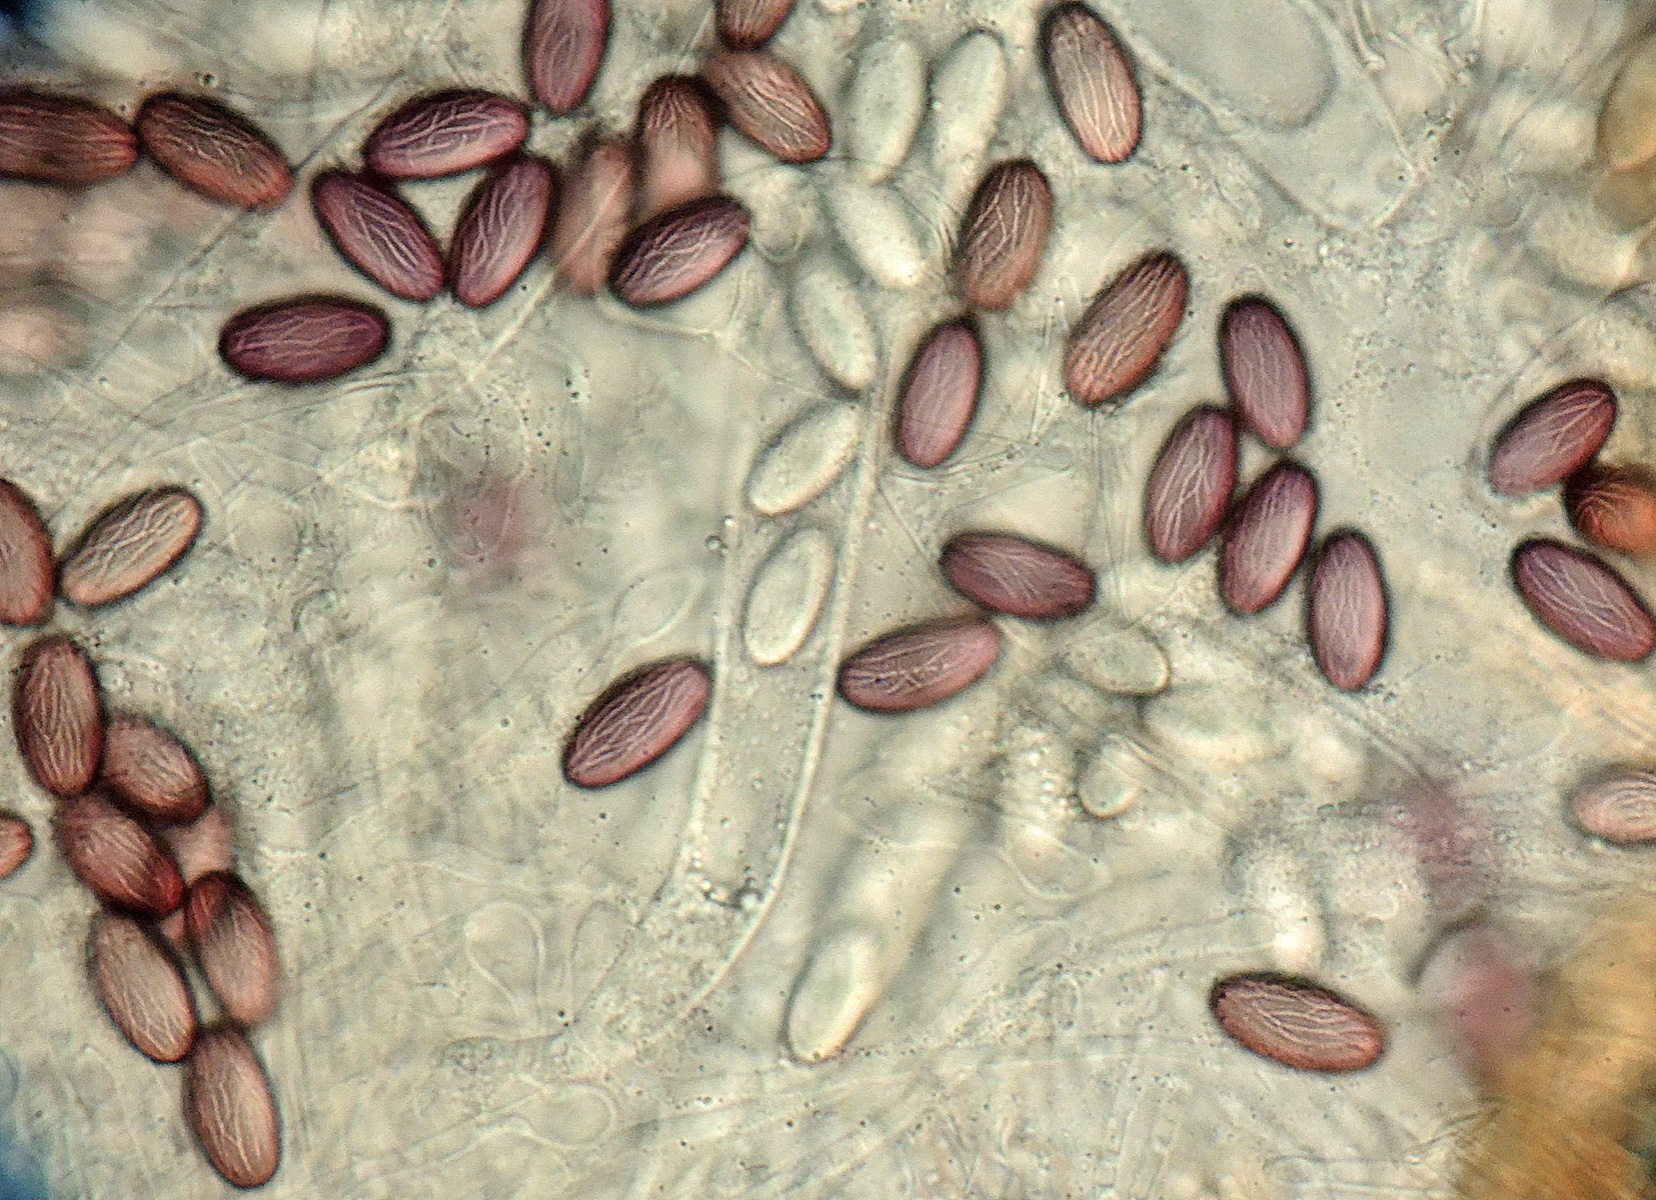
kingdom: Fungi
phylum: Ascomycota
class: Pezizomycetes
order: Pezizales
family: Ascobolaceae
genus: Ascobolus
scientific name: Ascobolus sacchariferus
